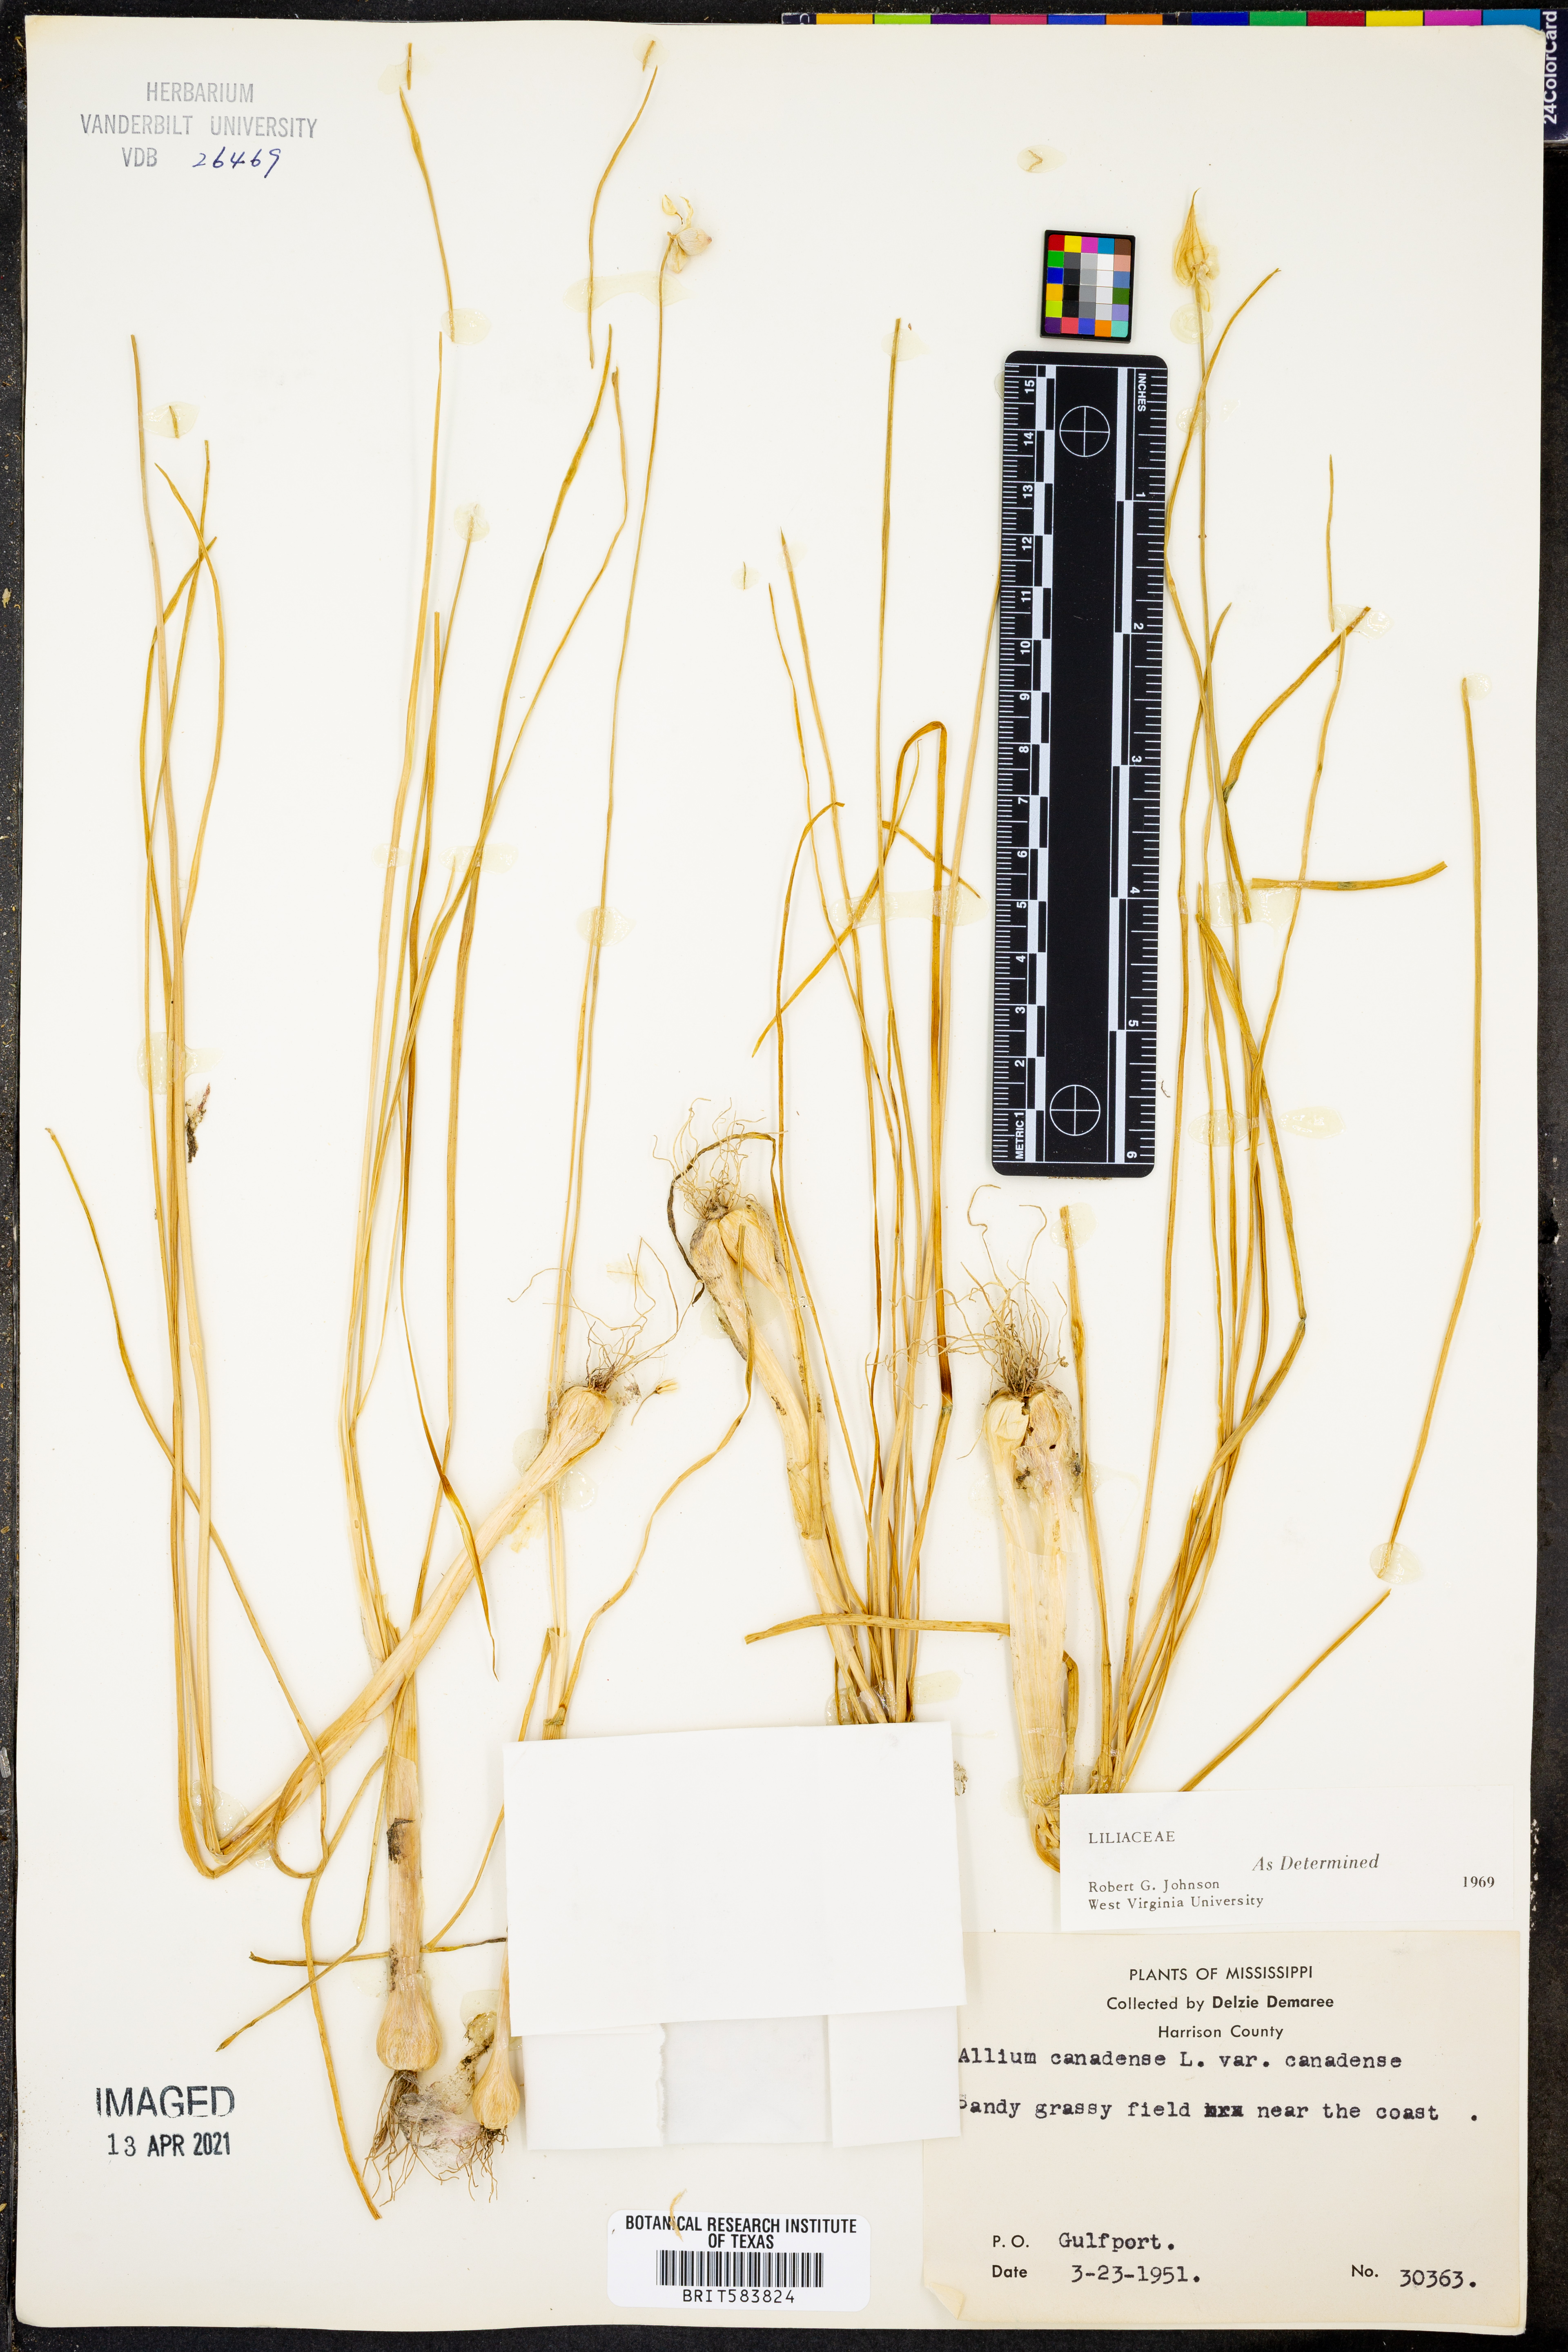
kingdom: Plantae
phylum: Tracheophyta
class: Liliopsida
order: Asparagales
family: Amaryllidaceae
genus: Allium
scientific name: Allium canadense
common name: Meadow garlic
